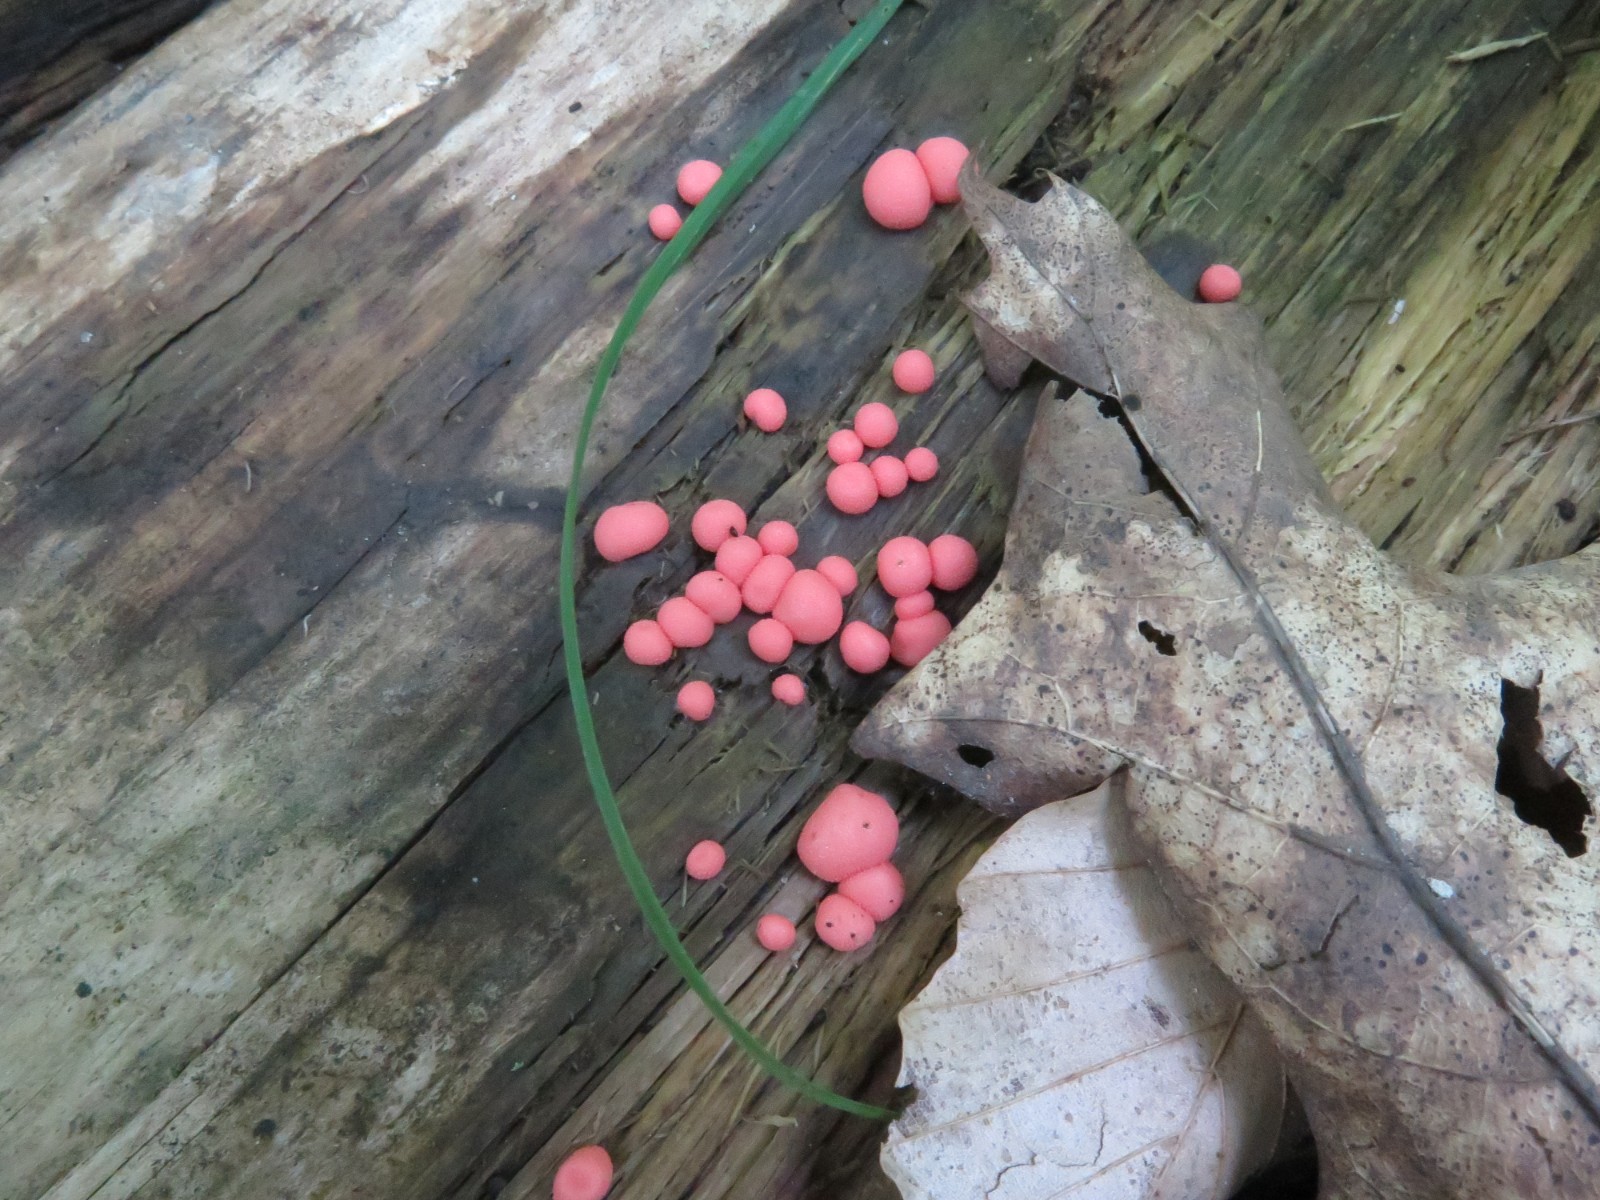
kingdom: Protozoa
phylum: Mycetozoa
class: Myxomycetes
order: Cribrariales
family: Tubiferaceae
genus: Lycogala
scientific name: Lycogala epidendrum
